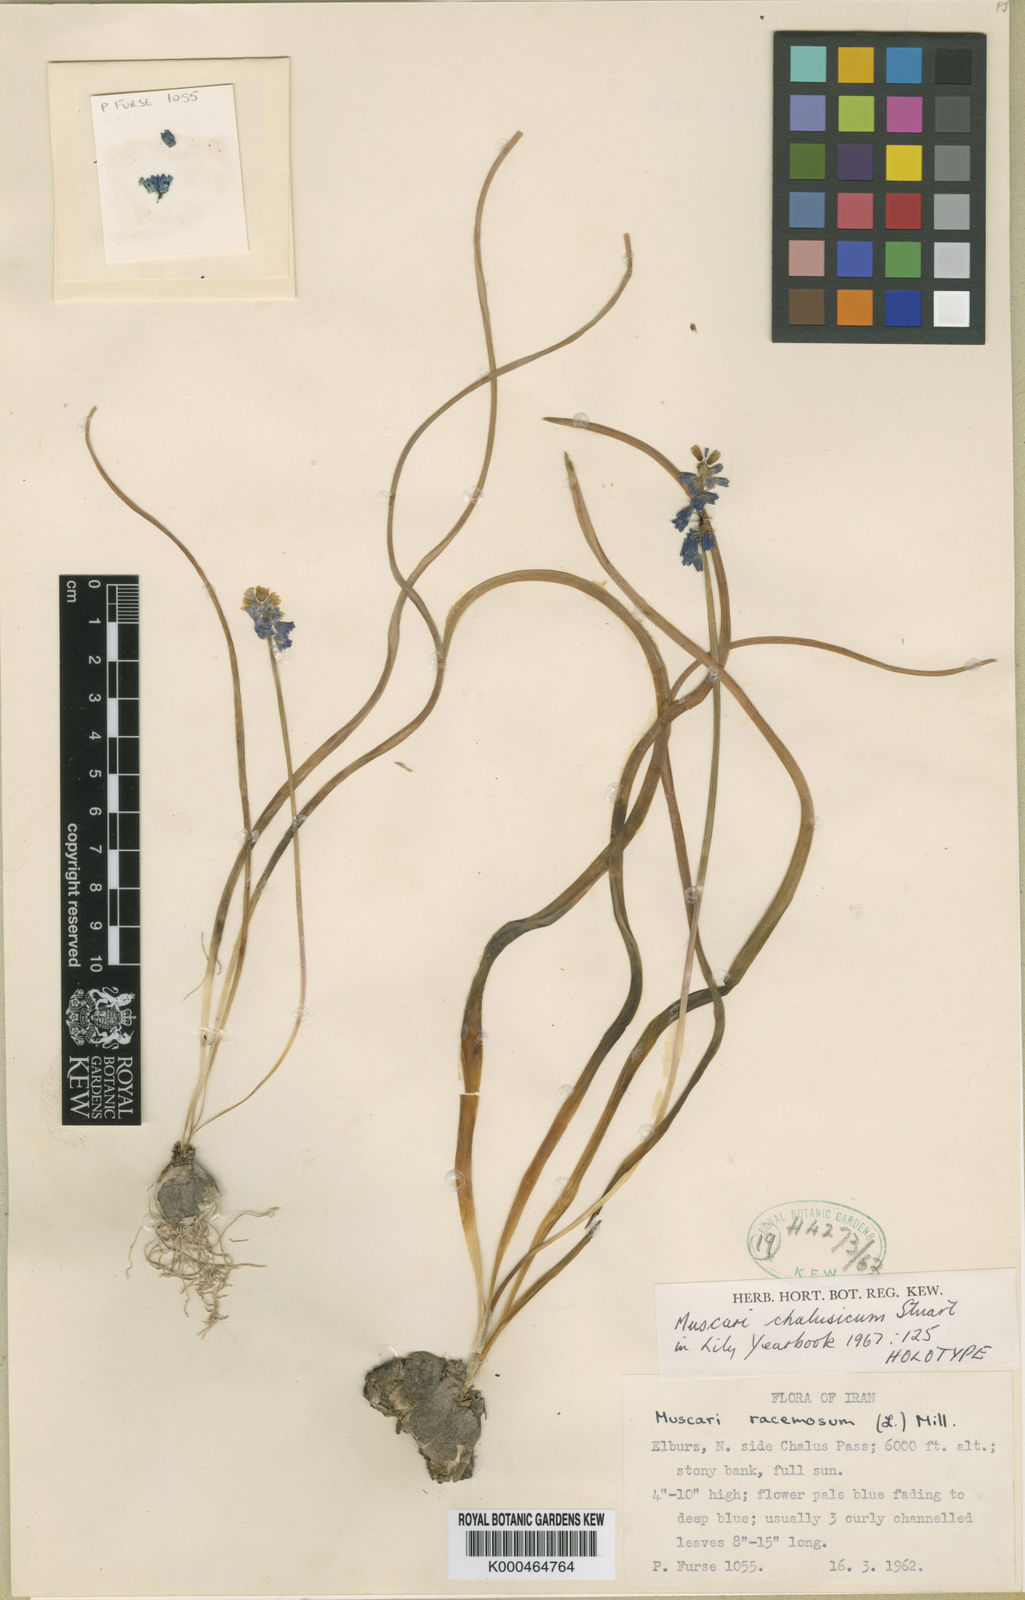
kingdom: Plantae
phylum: Tracheophyta
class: Liliopsida
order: Asparagales
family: Asparagaceae
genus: Muscari
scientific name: Muscari chalusicum
